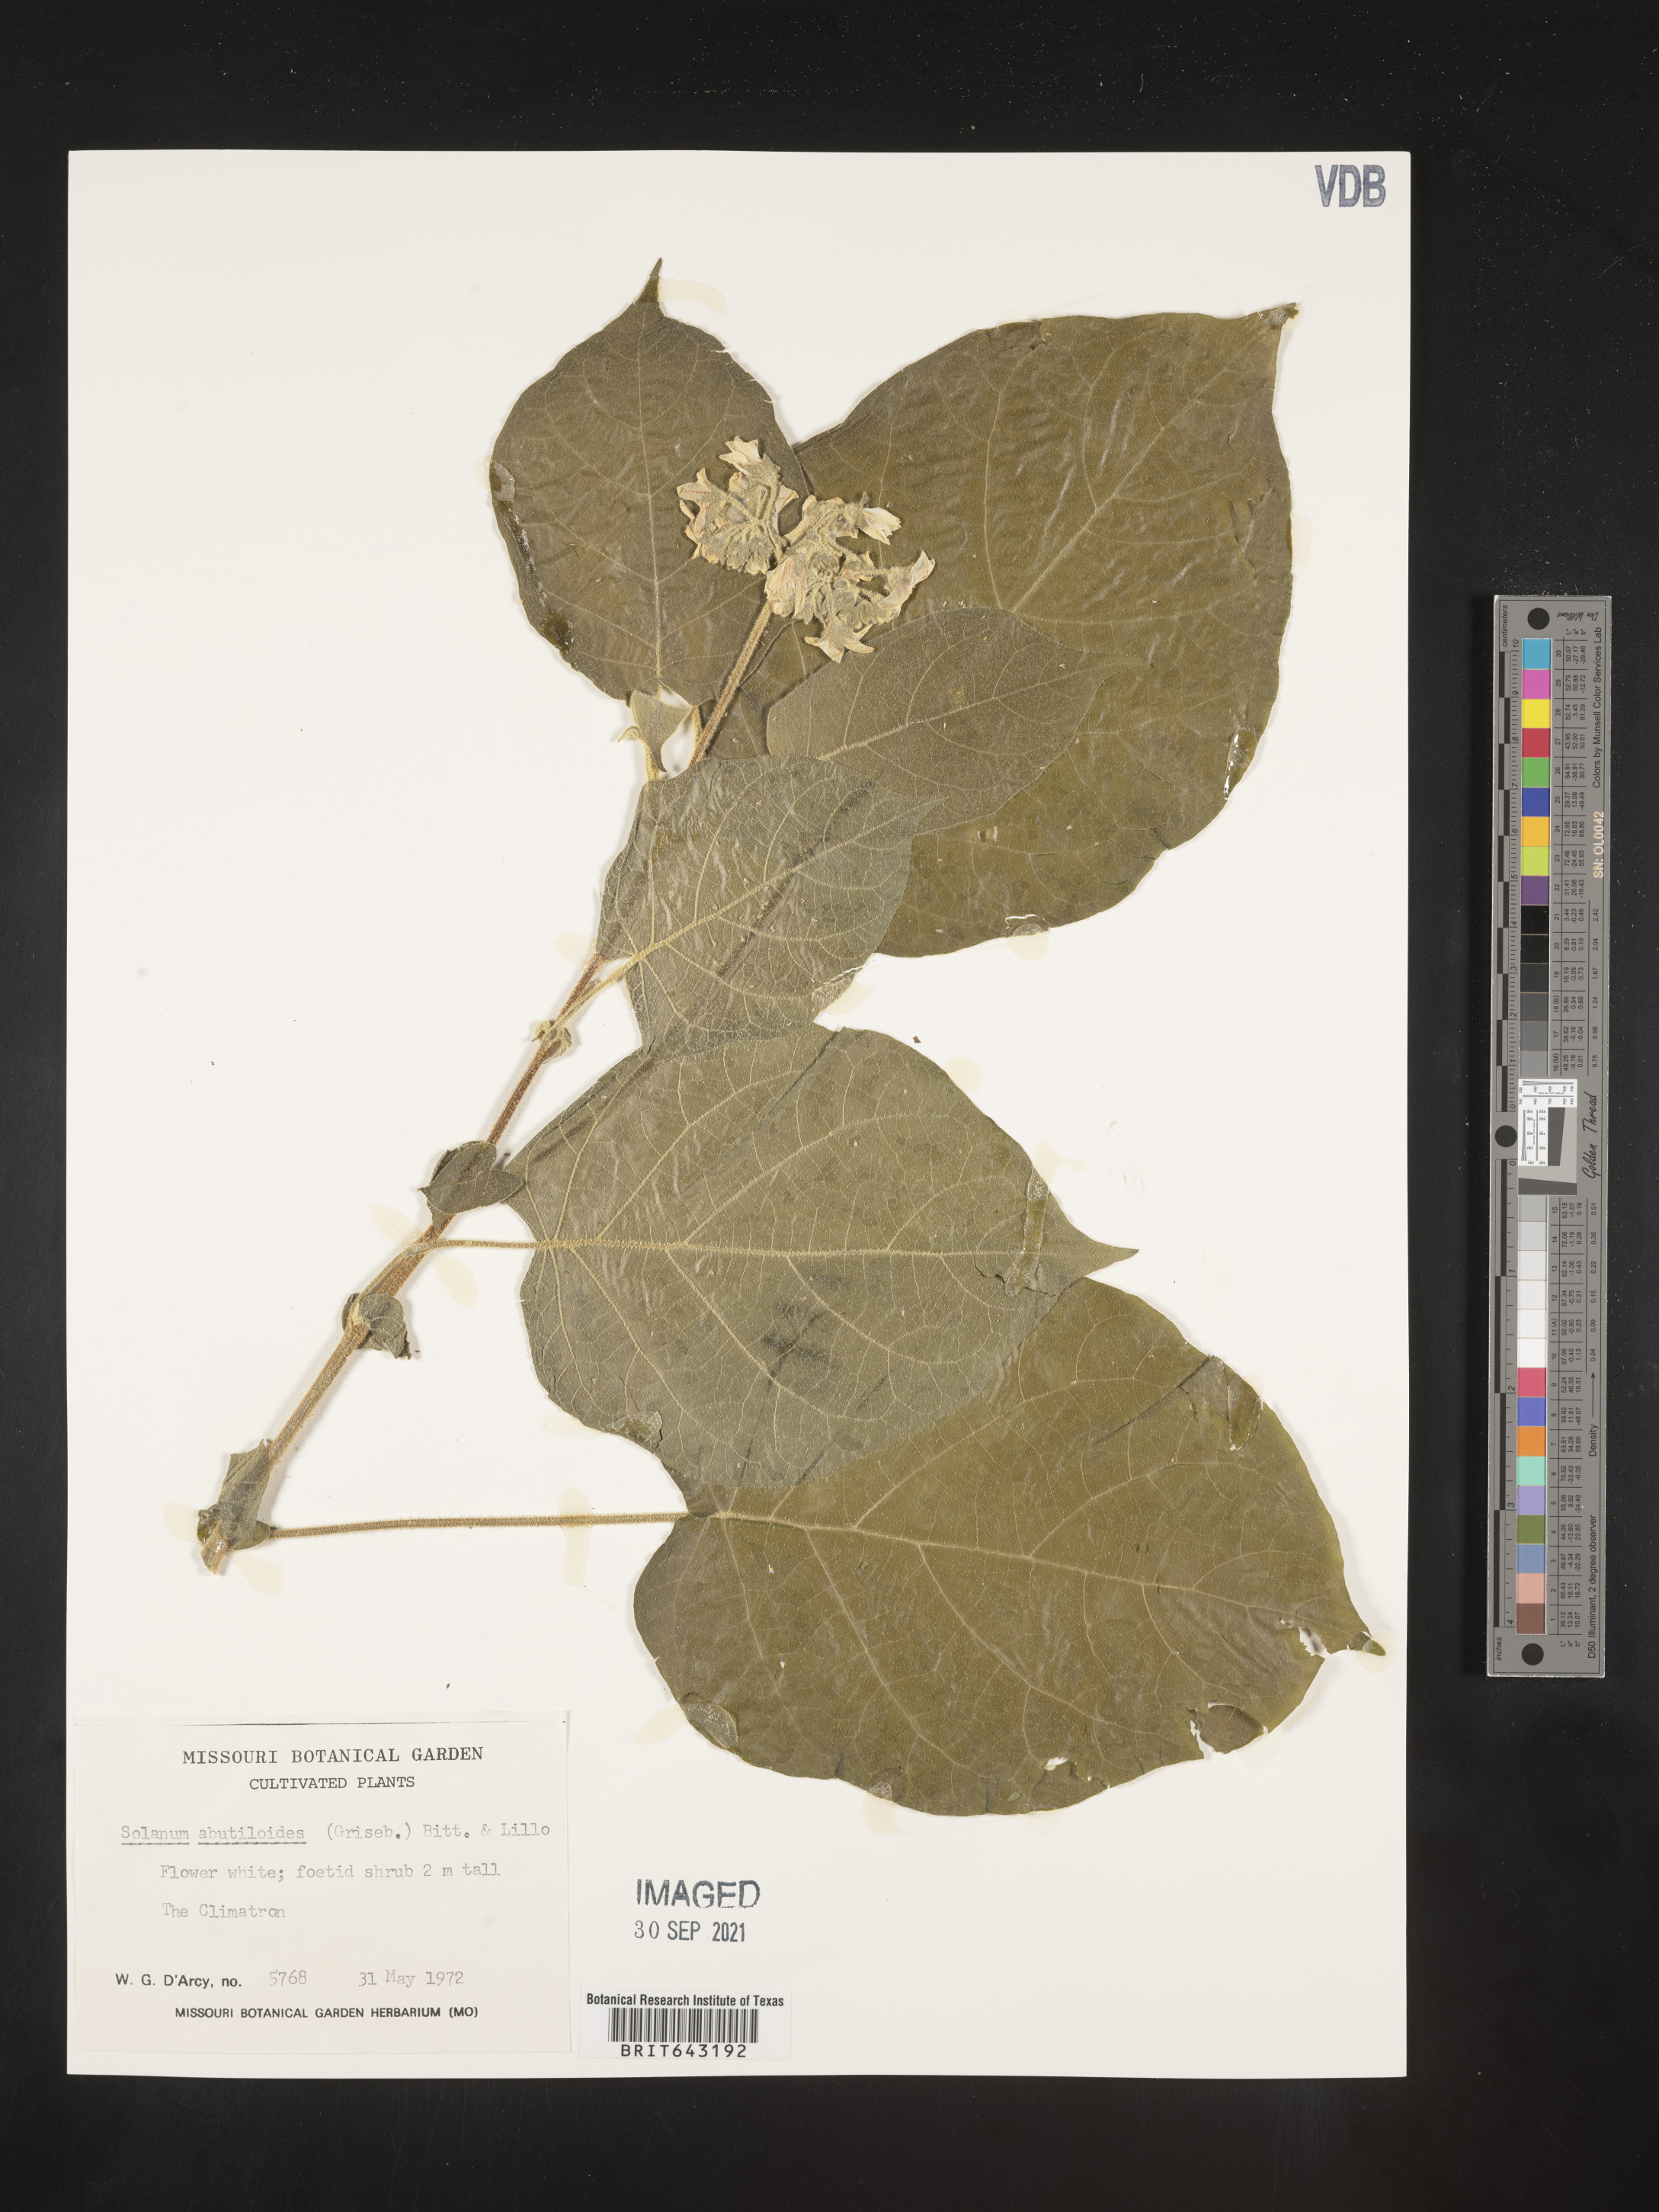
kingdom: Plantae
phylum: Tracheophyta
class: Magnoliopsida
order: Solanales
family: Solanaceae
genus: Solanum
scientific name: Solanum
